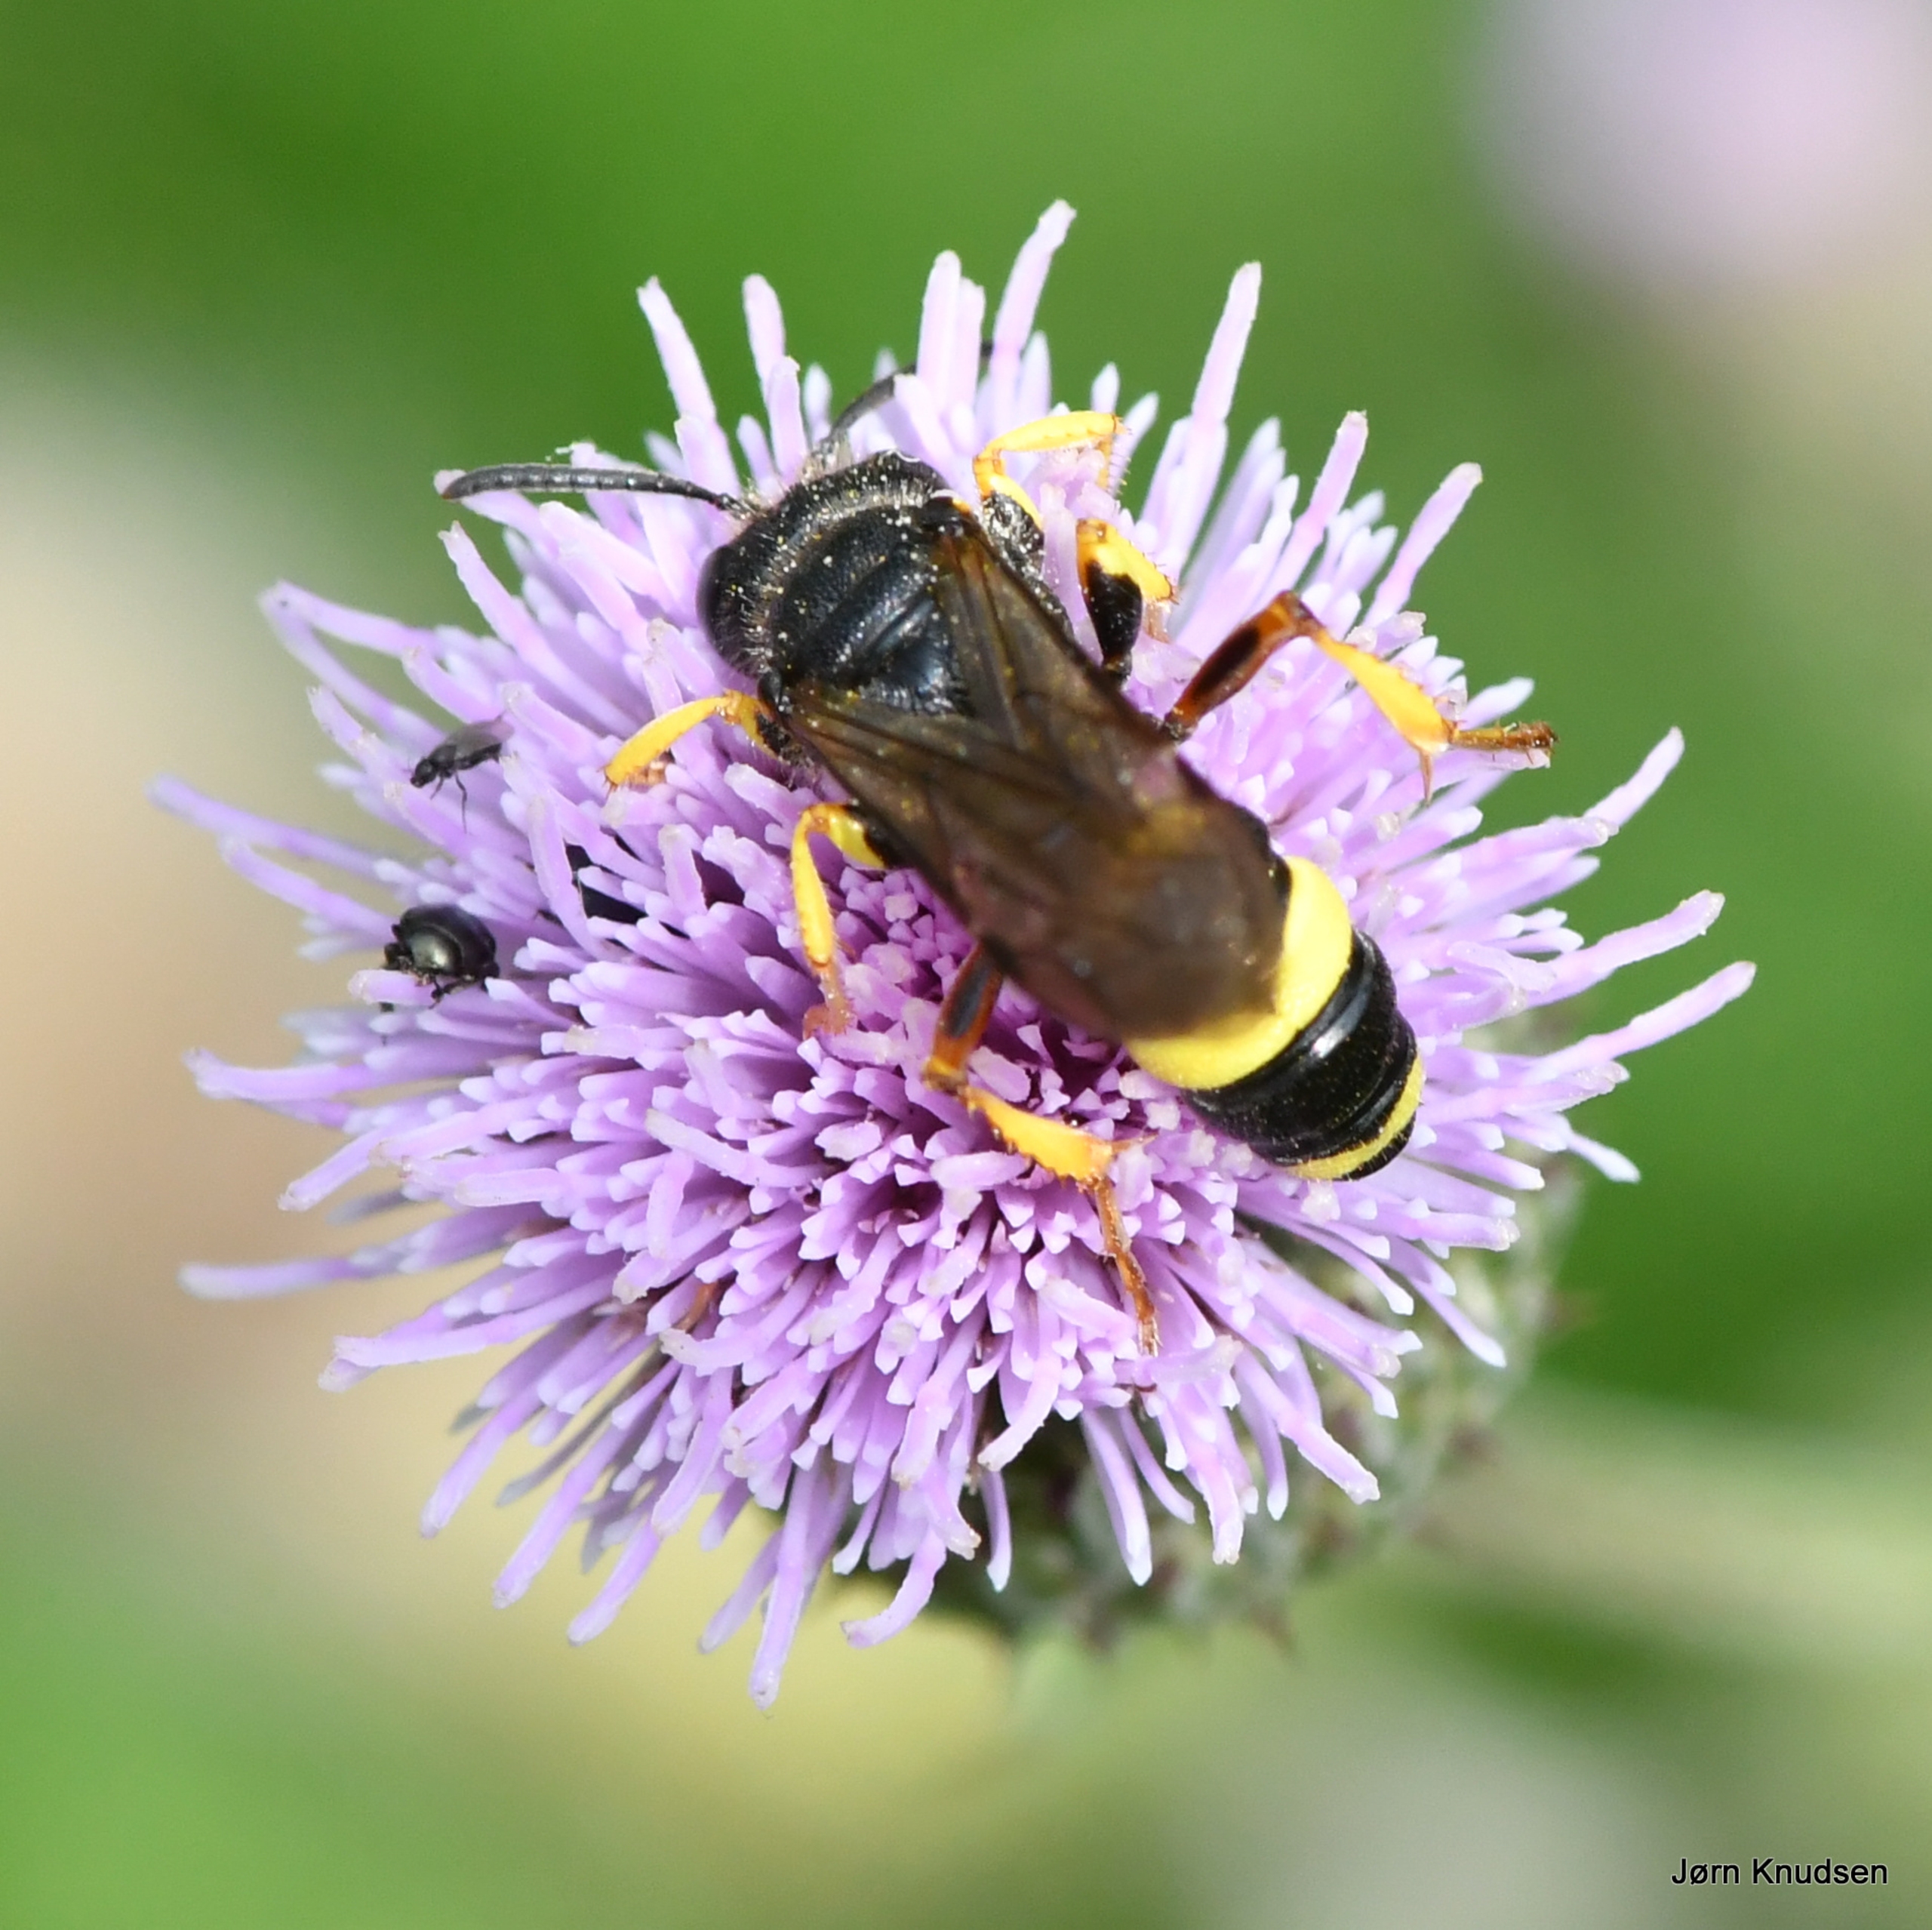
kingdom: Animalia
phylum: Arthropoda
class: Insecta
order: Hymenoptera
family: Crabronidae
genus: Cerceris
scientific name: Cerceris rybyensis
